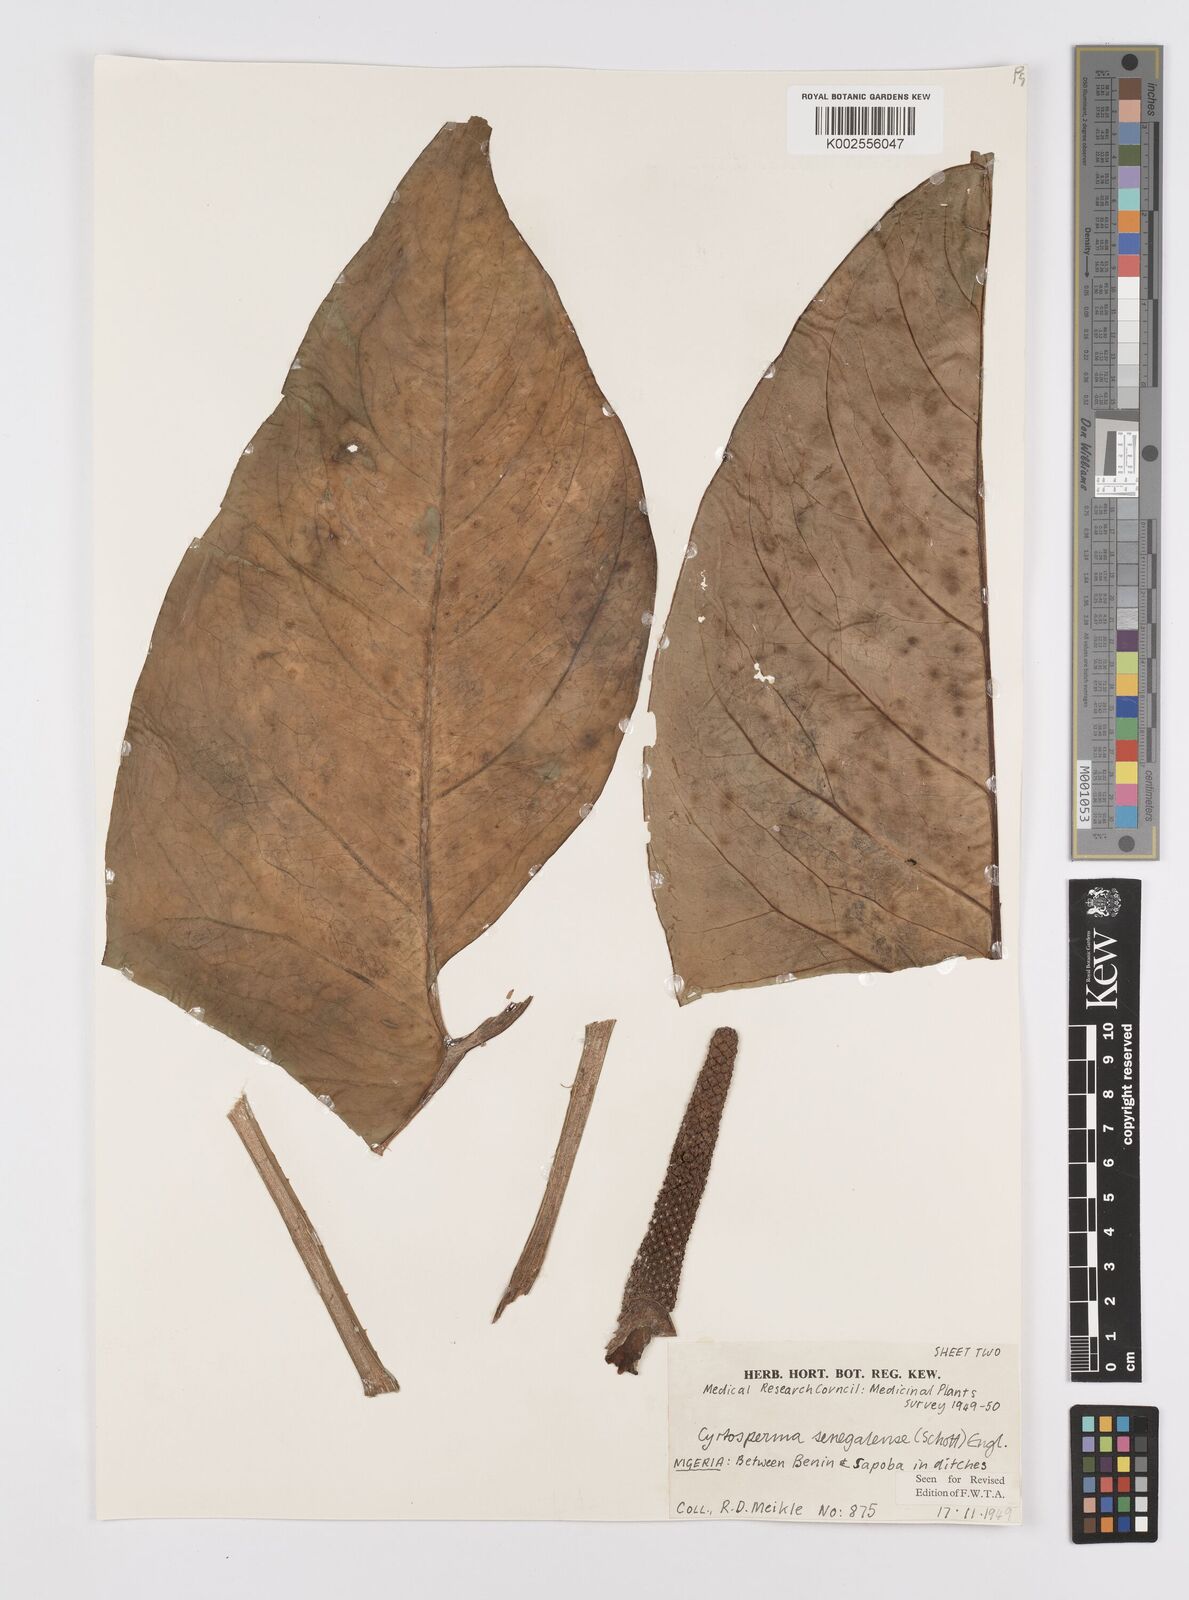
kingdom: Plantae
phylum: Tracheophyta
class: Liliopsida
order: Alismatales
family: Araceae
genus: Lasimorpha
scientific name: Lasimorpha senegalensis
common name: Swamp arum
